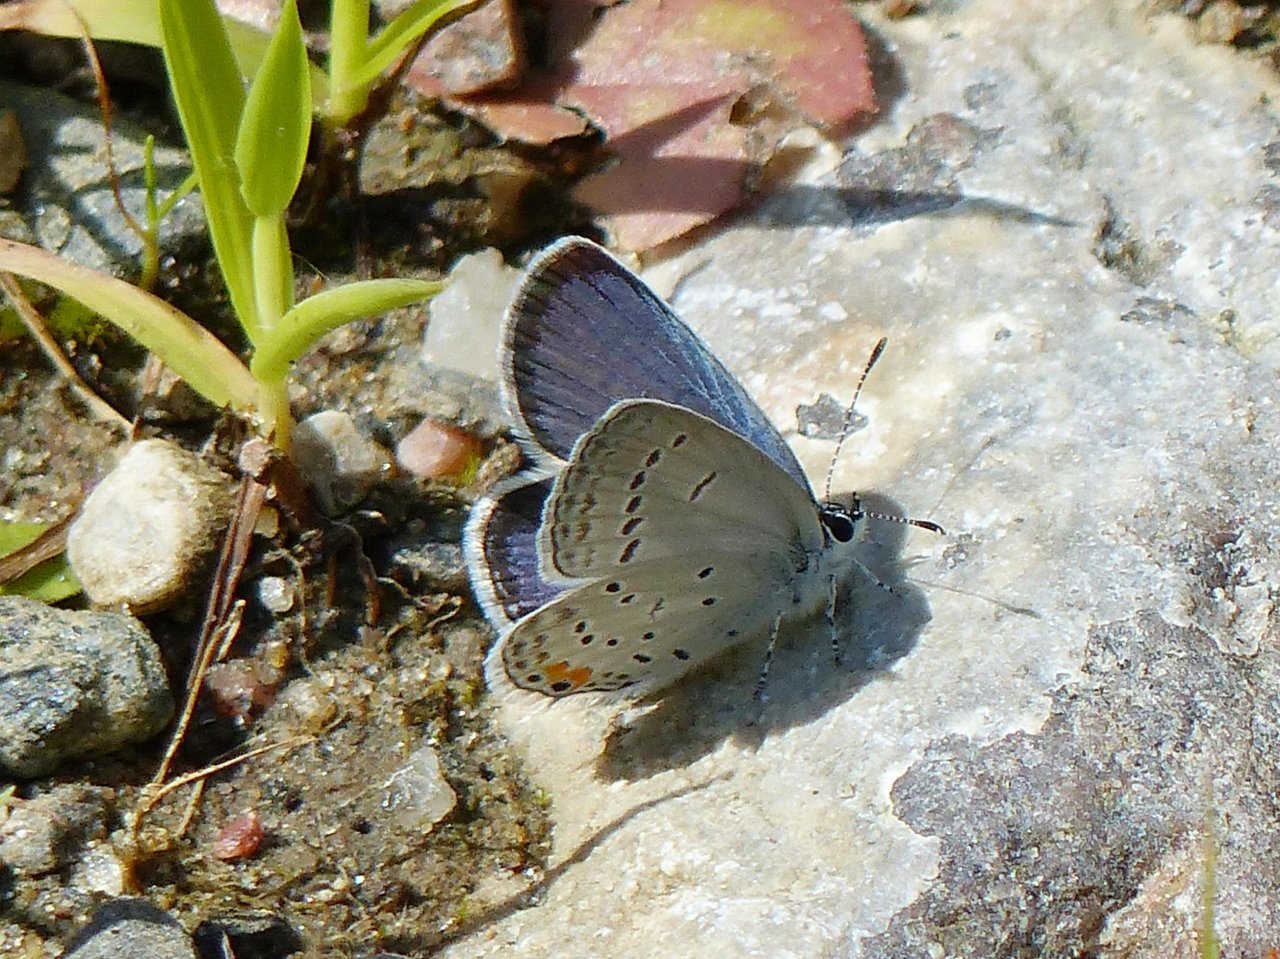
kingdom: Animalia
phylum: Arthropoda
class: Insecta
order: Lepidoptera
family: Lycaenidae
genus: Elkalyce
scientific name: Elkalyce comyntas
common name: Eastern Tailed-Blue
